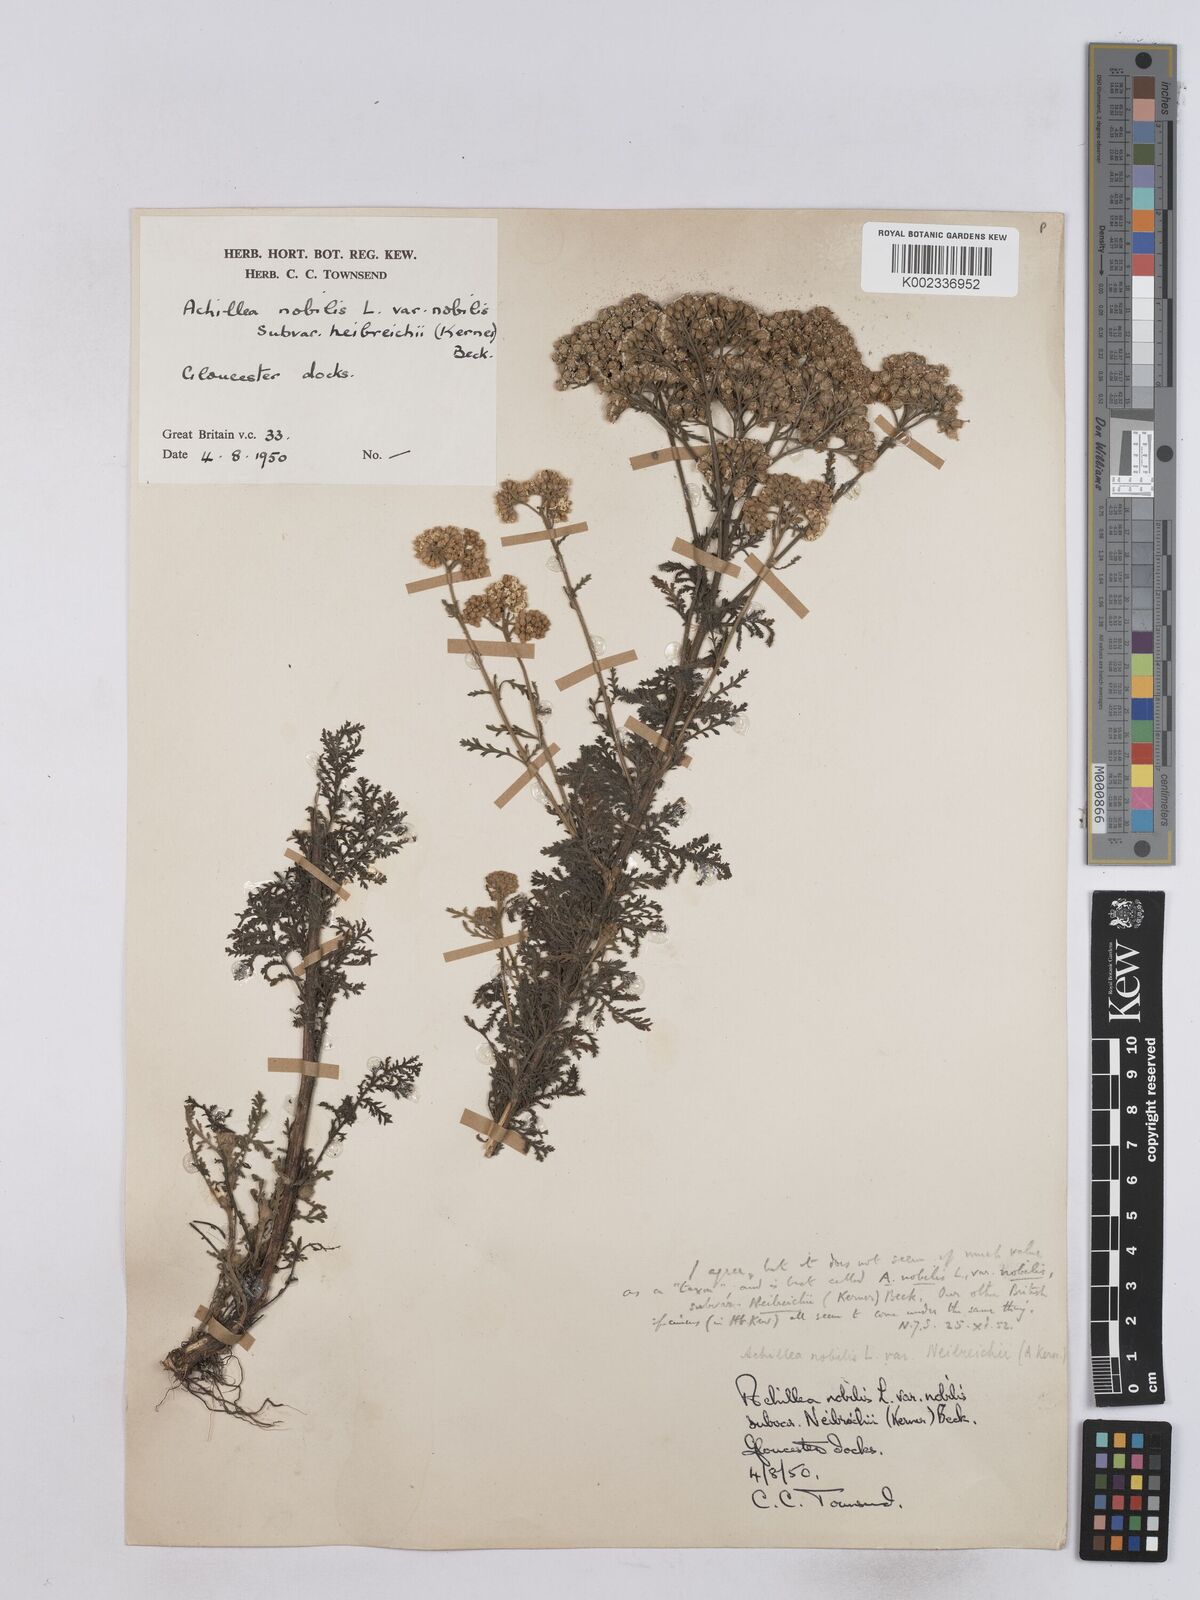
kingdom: Plantae
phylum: Tracheophyta
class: Magnoliopsida
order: Asterales
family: Asteraceae
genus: Achillea
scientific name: Achillea nobilis
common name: Noble yarrow
